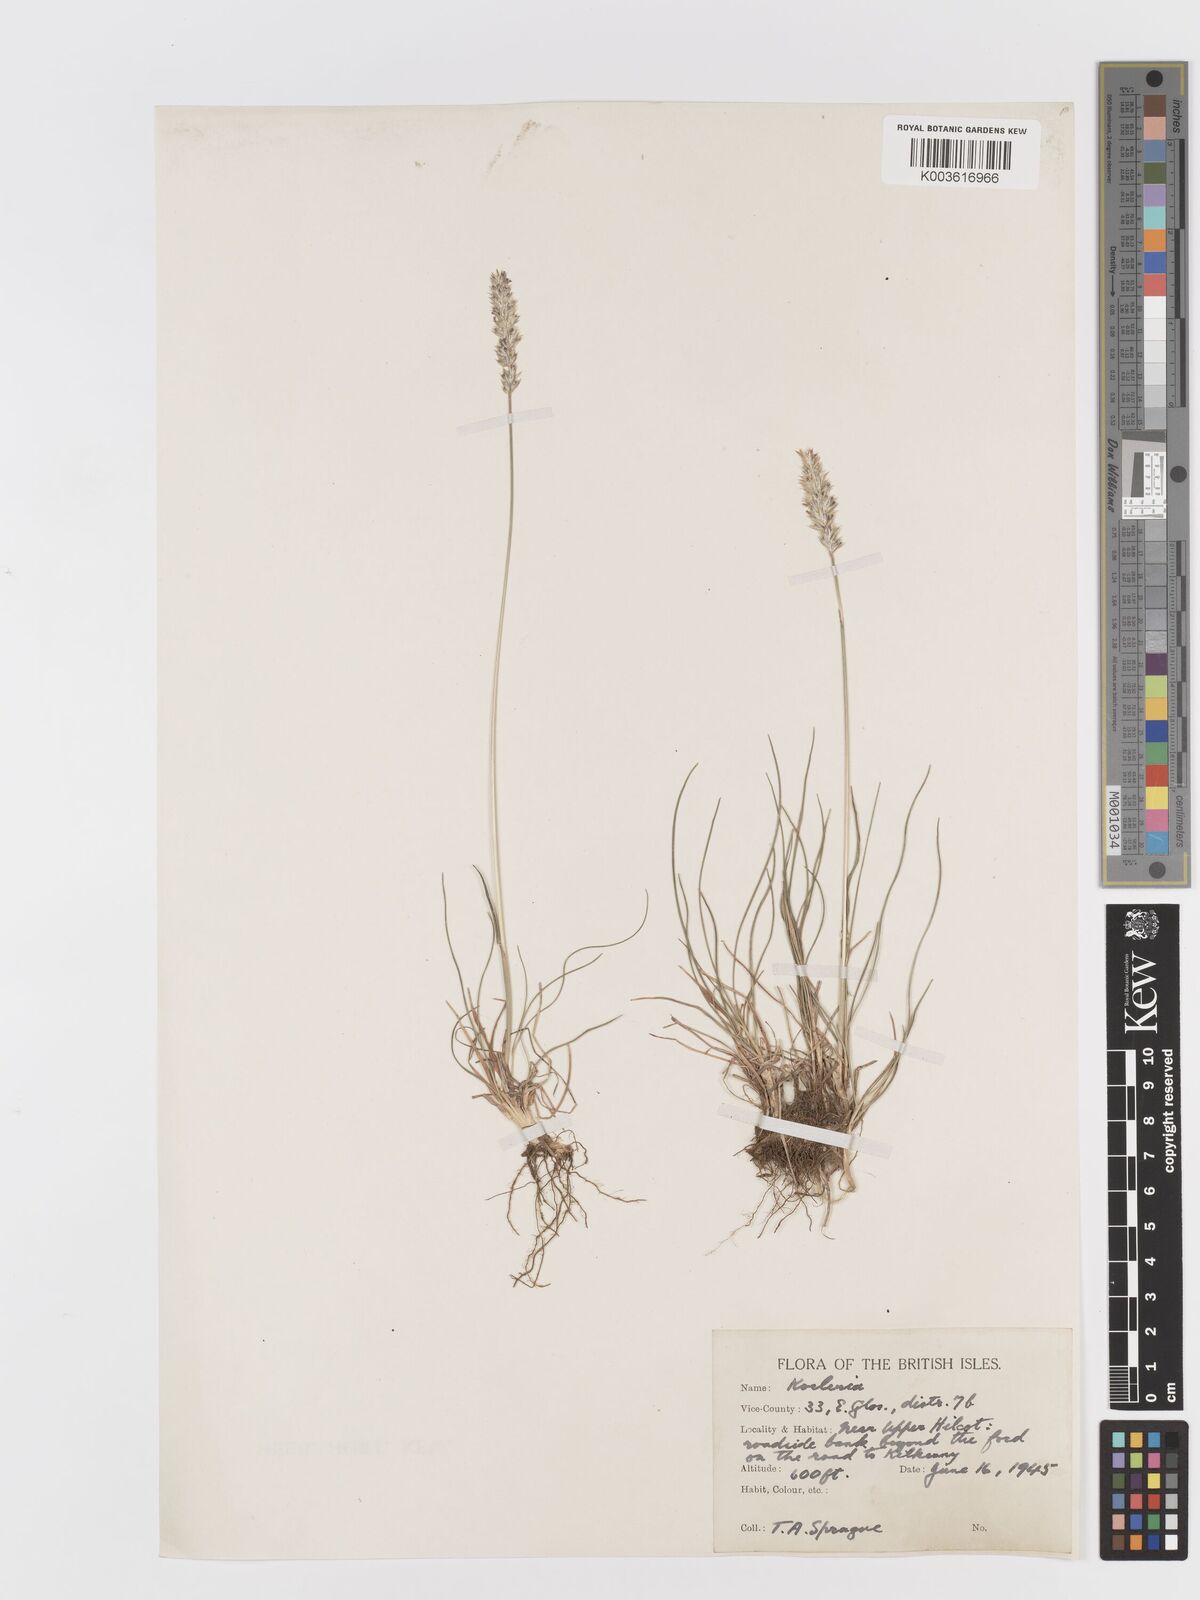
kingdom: Plantae
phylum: Tracheophyta
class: Liliopsida
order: Poales
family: Poaceae
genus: Koeleria
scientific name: Koeleria macrantha
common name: Crested hair-grass
